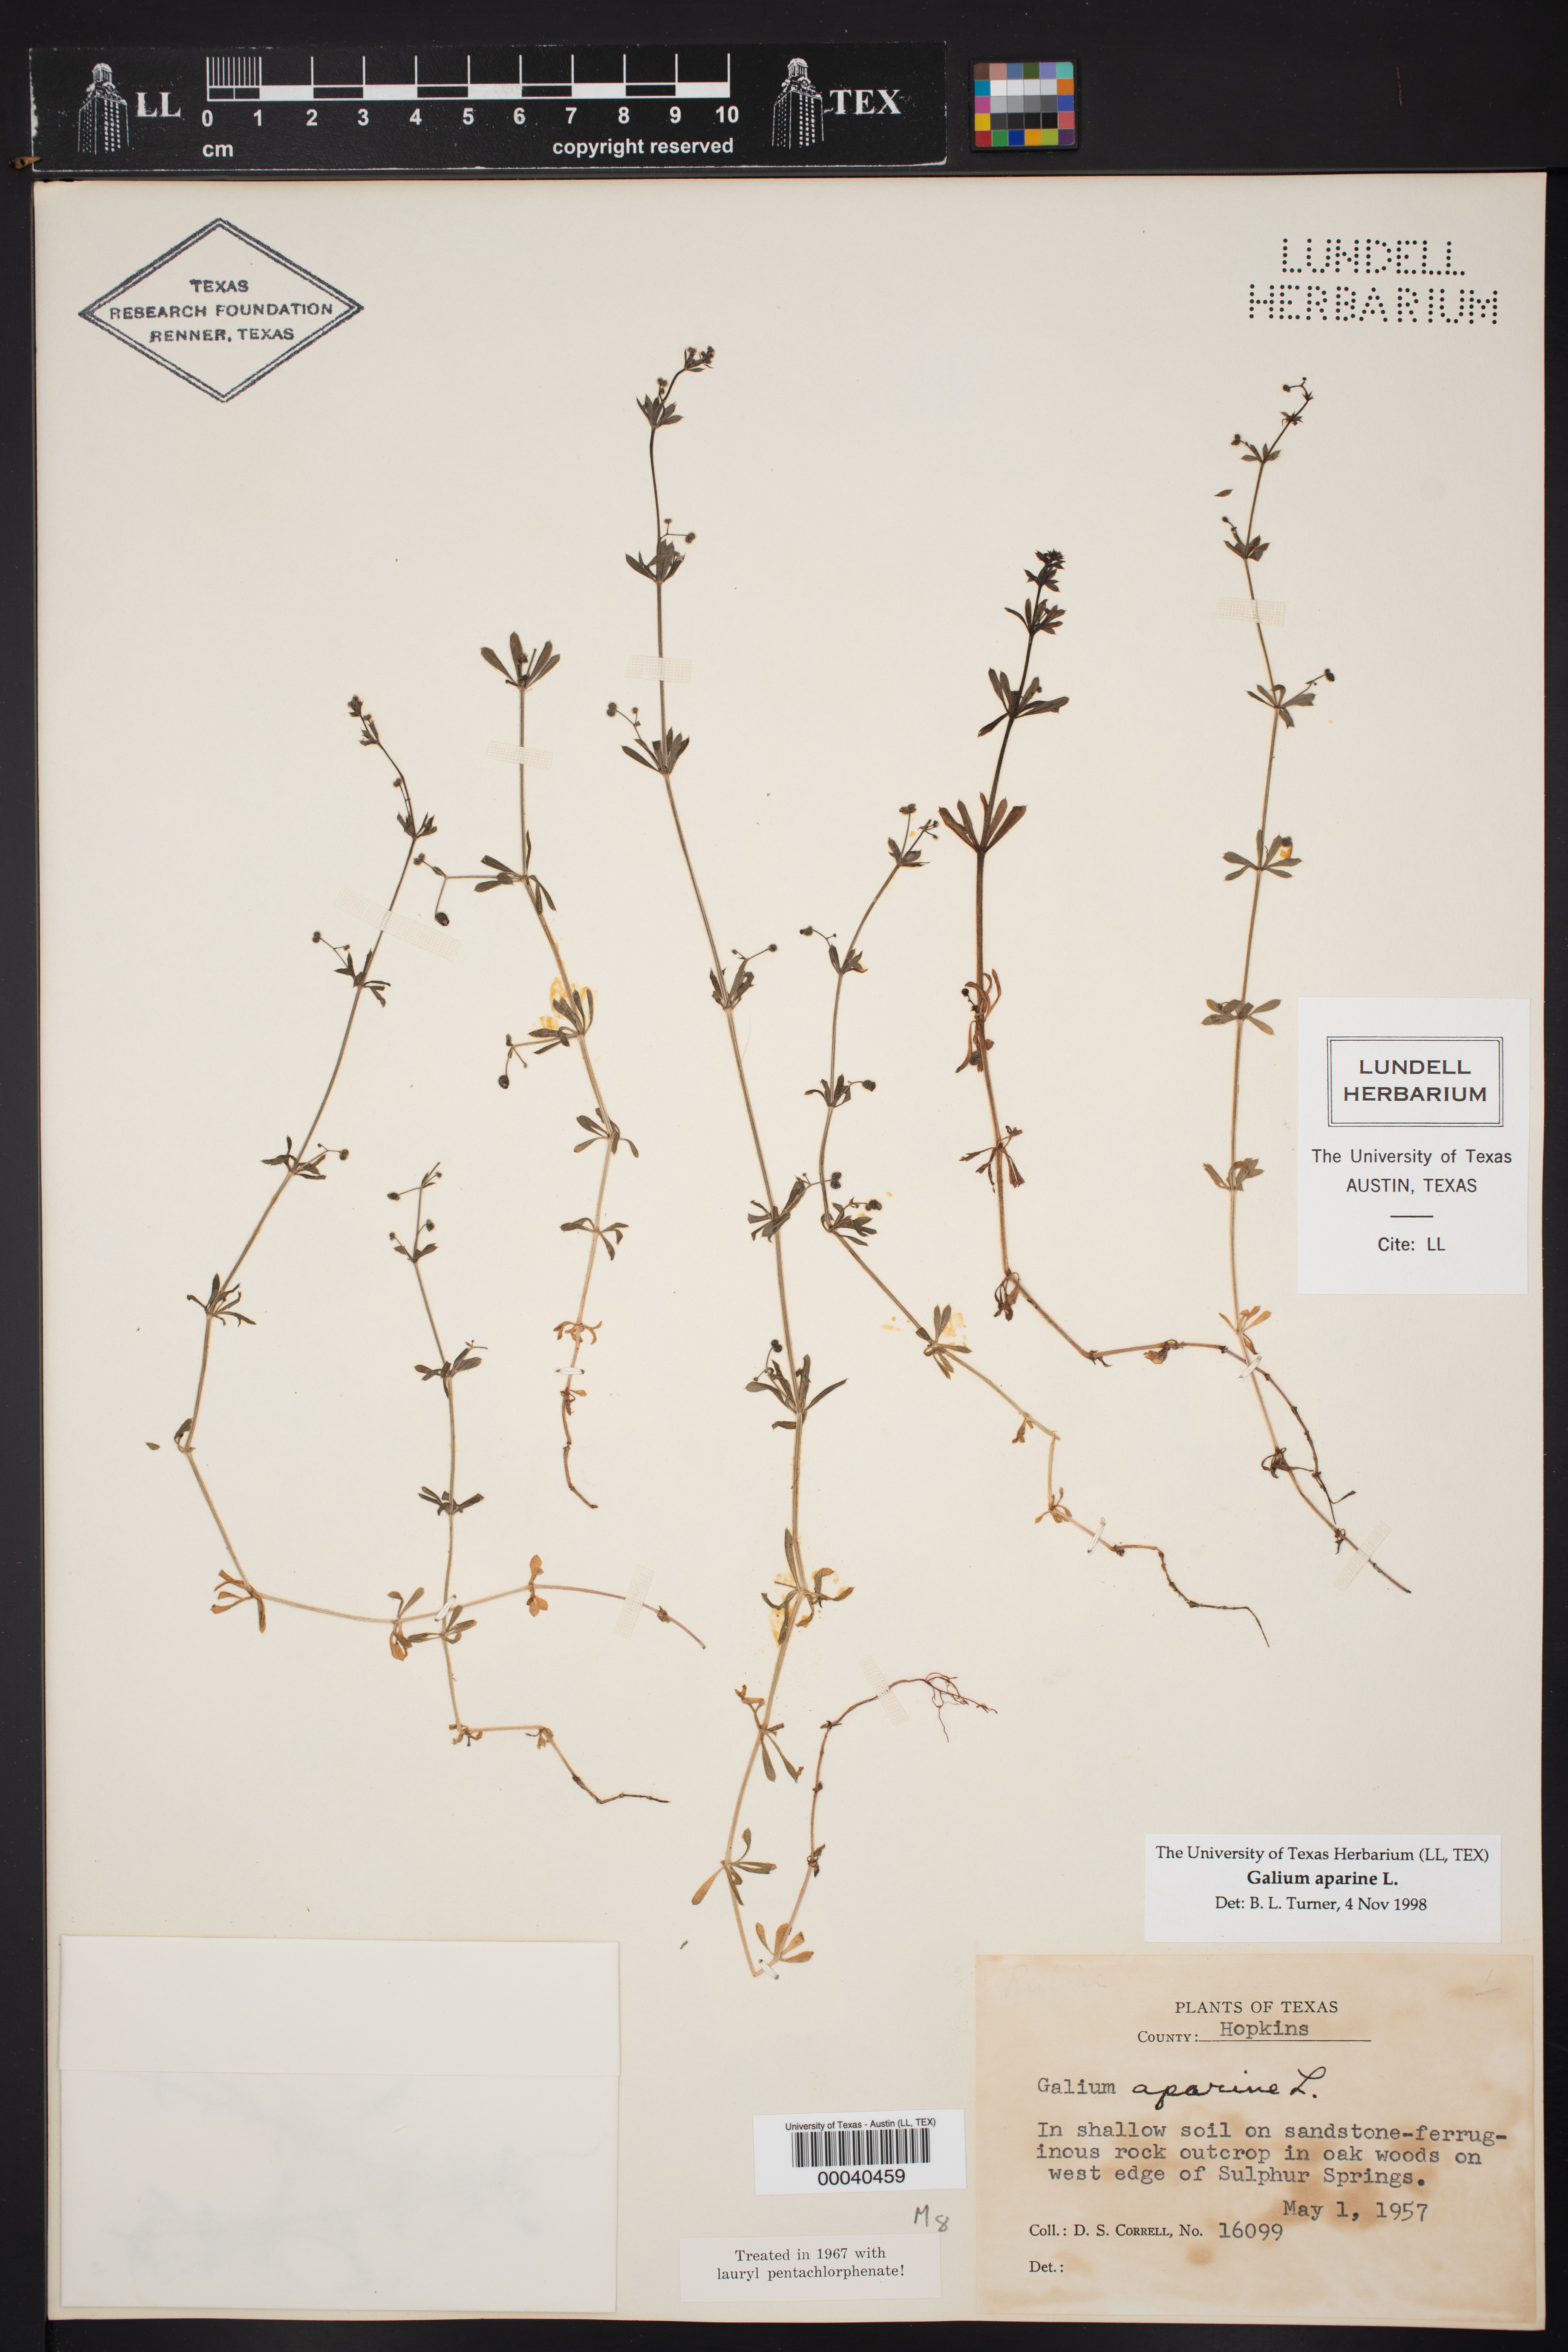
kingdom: Plantae
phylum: Tracheophyta
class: Magnoliopsida
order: Gentianales
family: Rubiaceae
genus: Galium
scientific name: Galium aparine
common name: Cleavers
